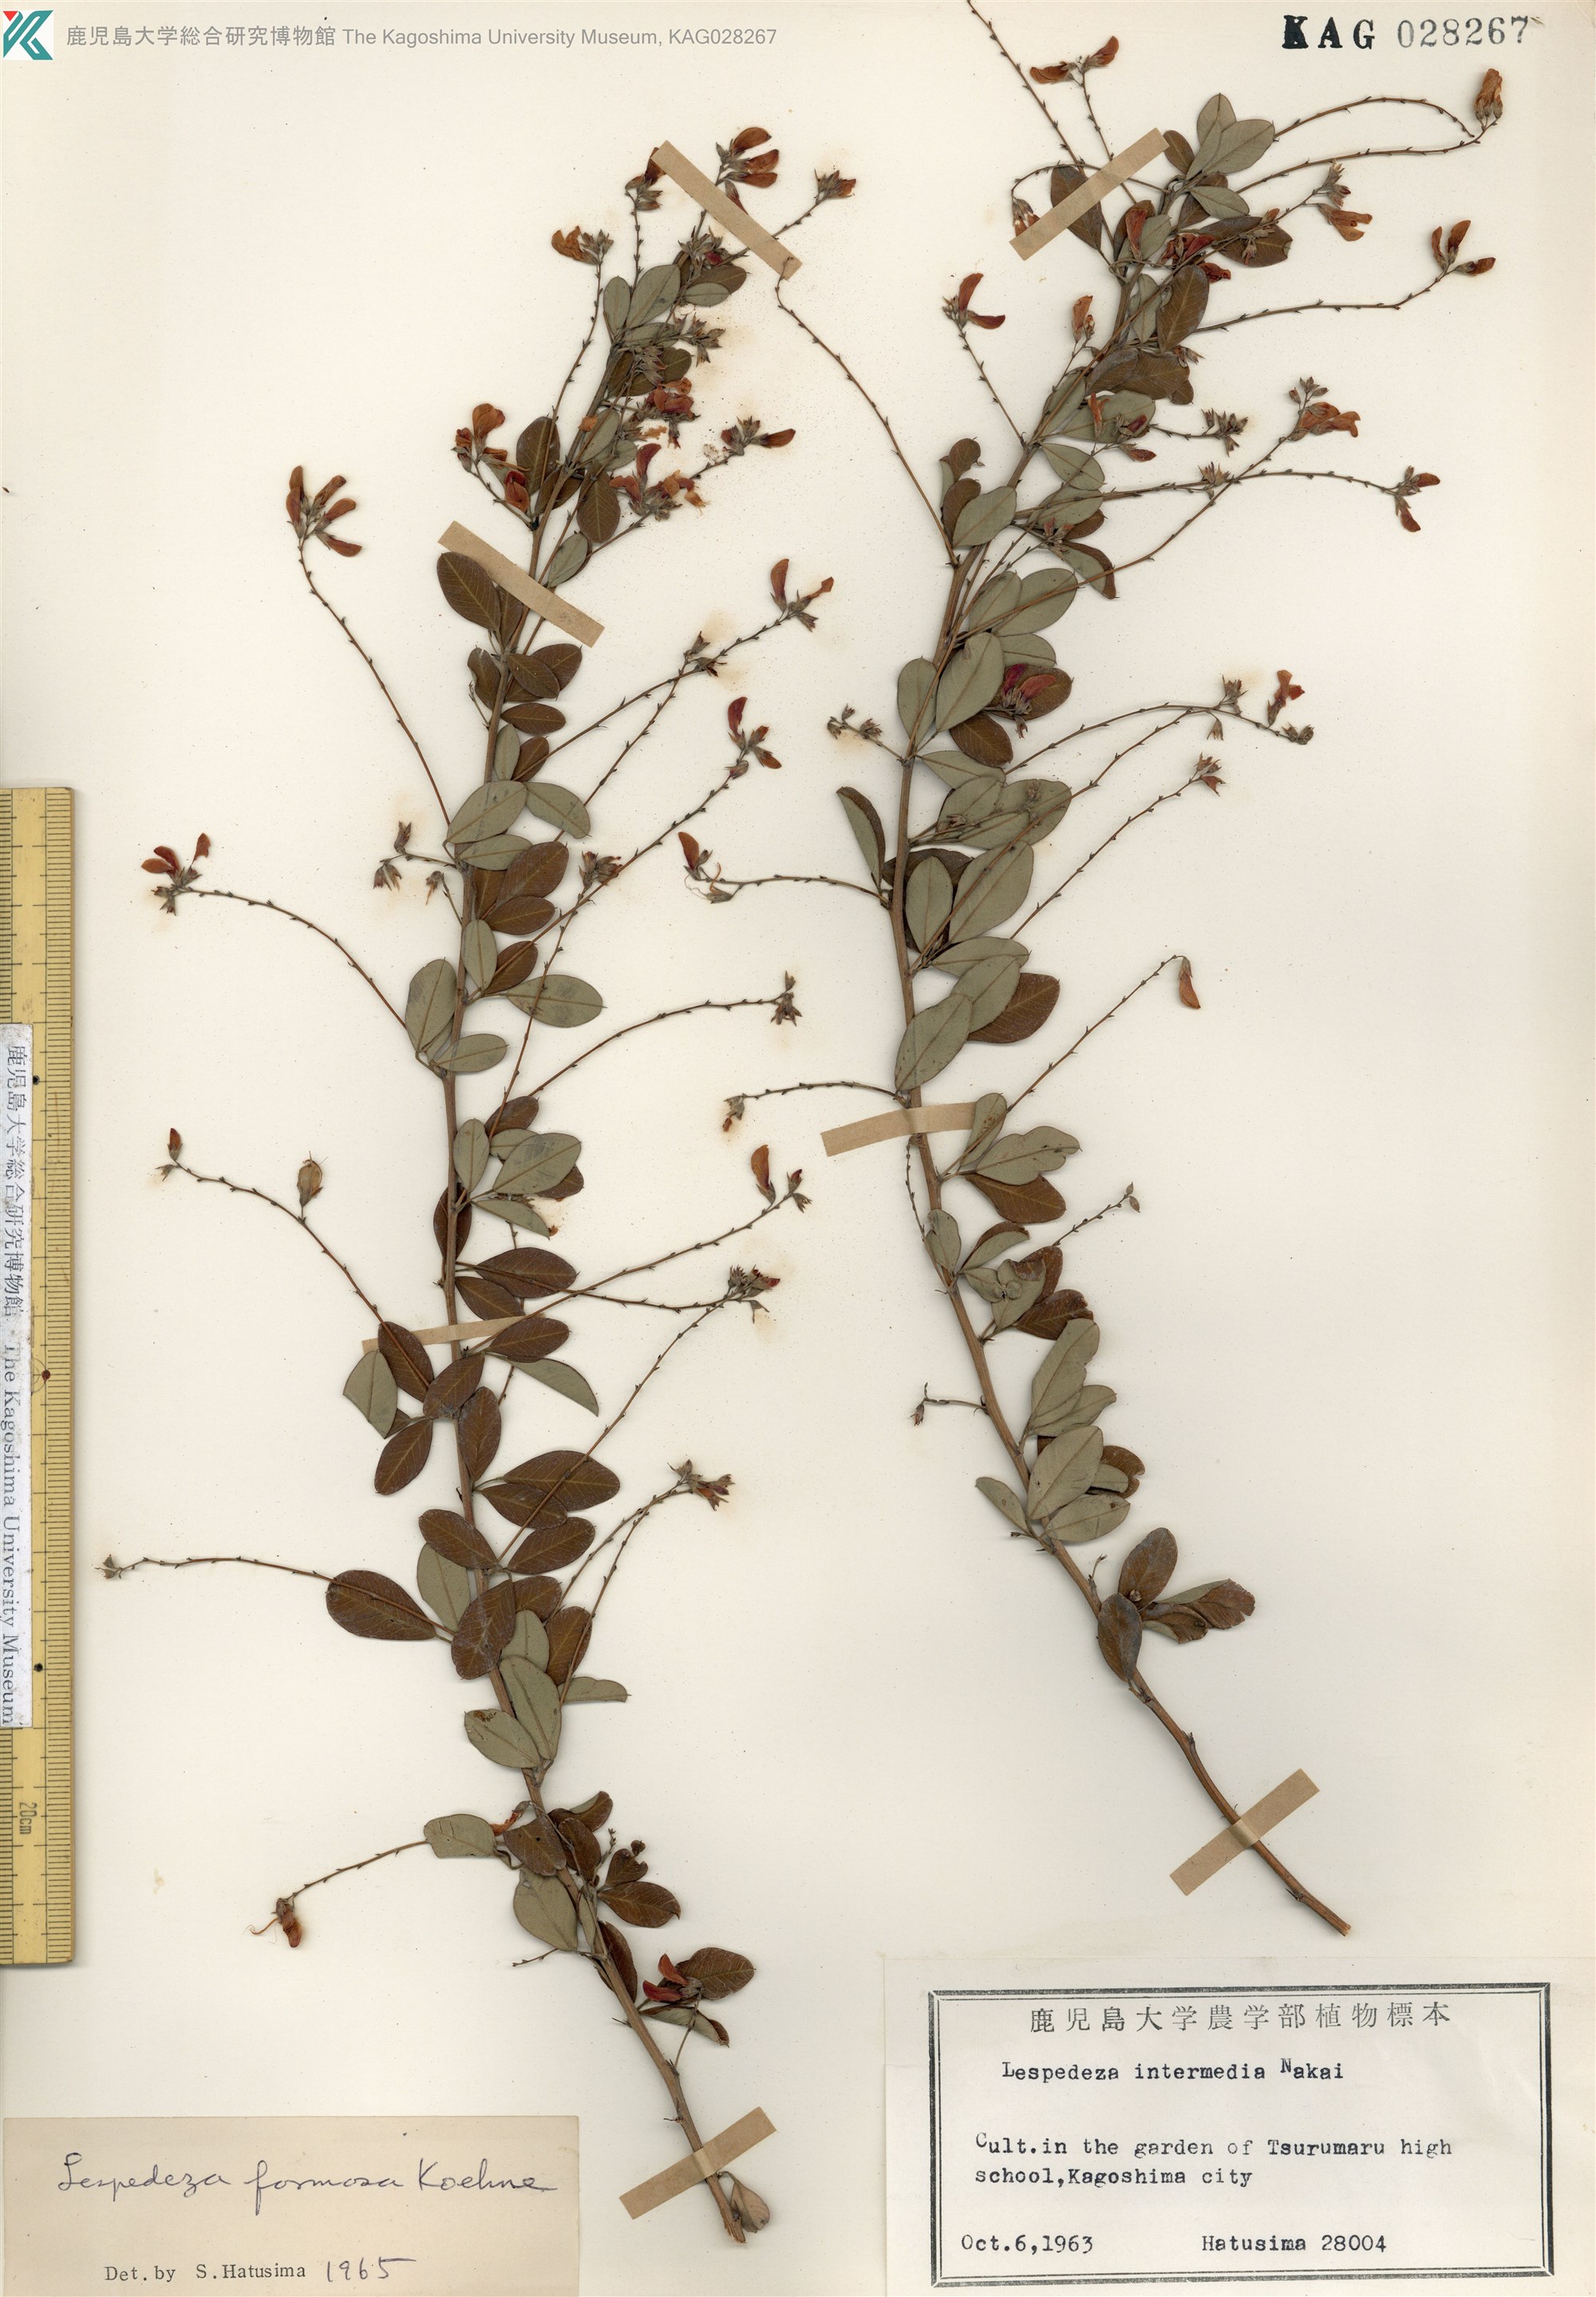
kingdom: Plantae
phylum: Tracheophyta
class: Magnoliopsida
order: Fabales
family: Fabaceae
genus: Lespedeza
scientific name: Lespedeza thunbergii
